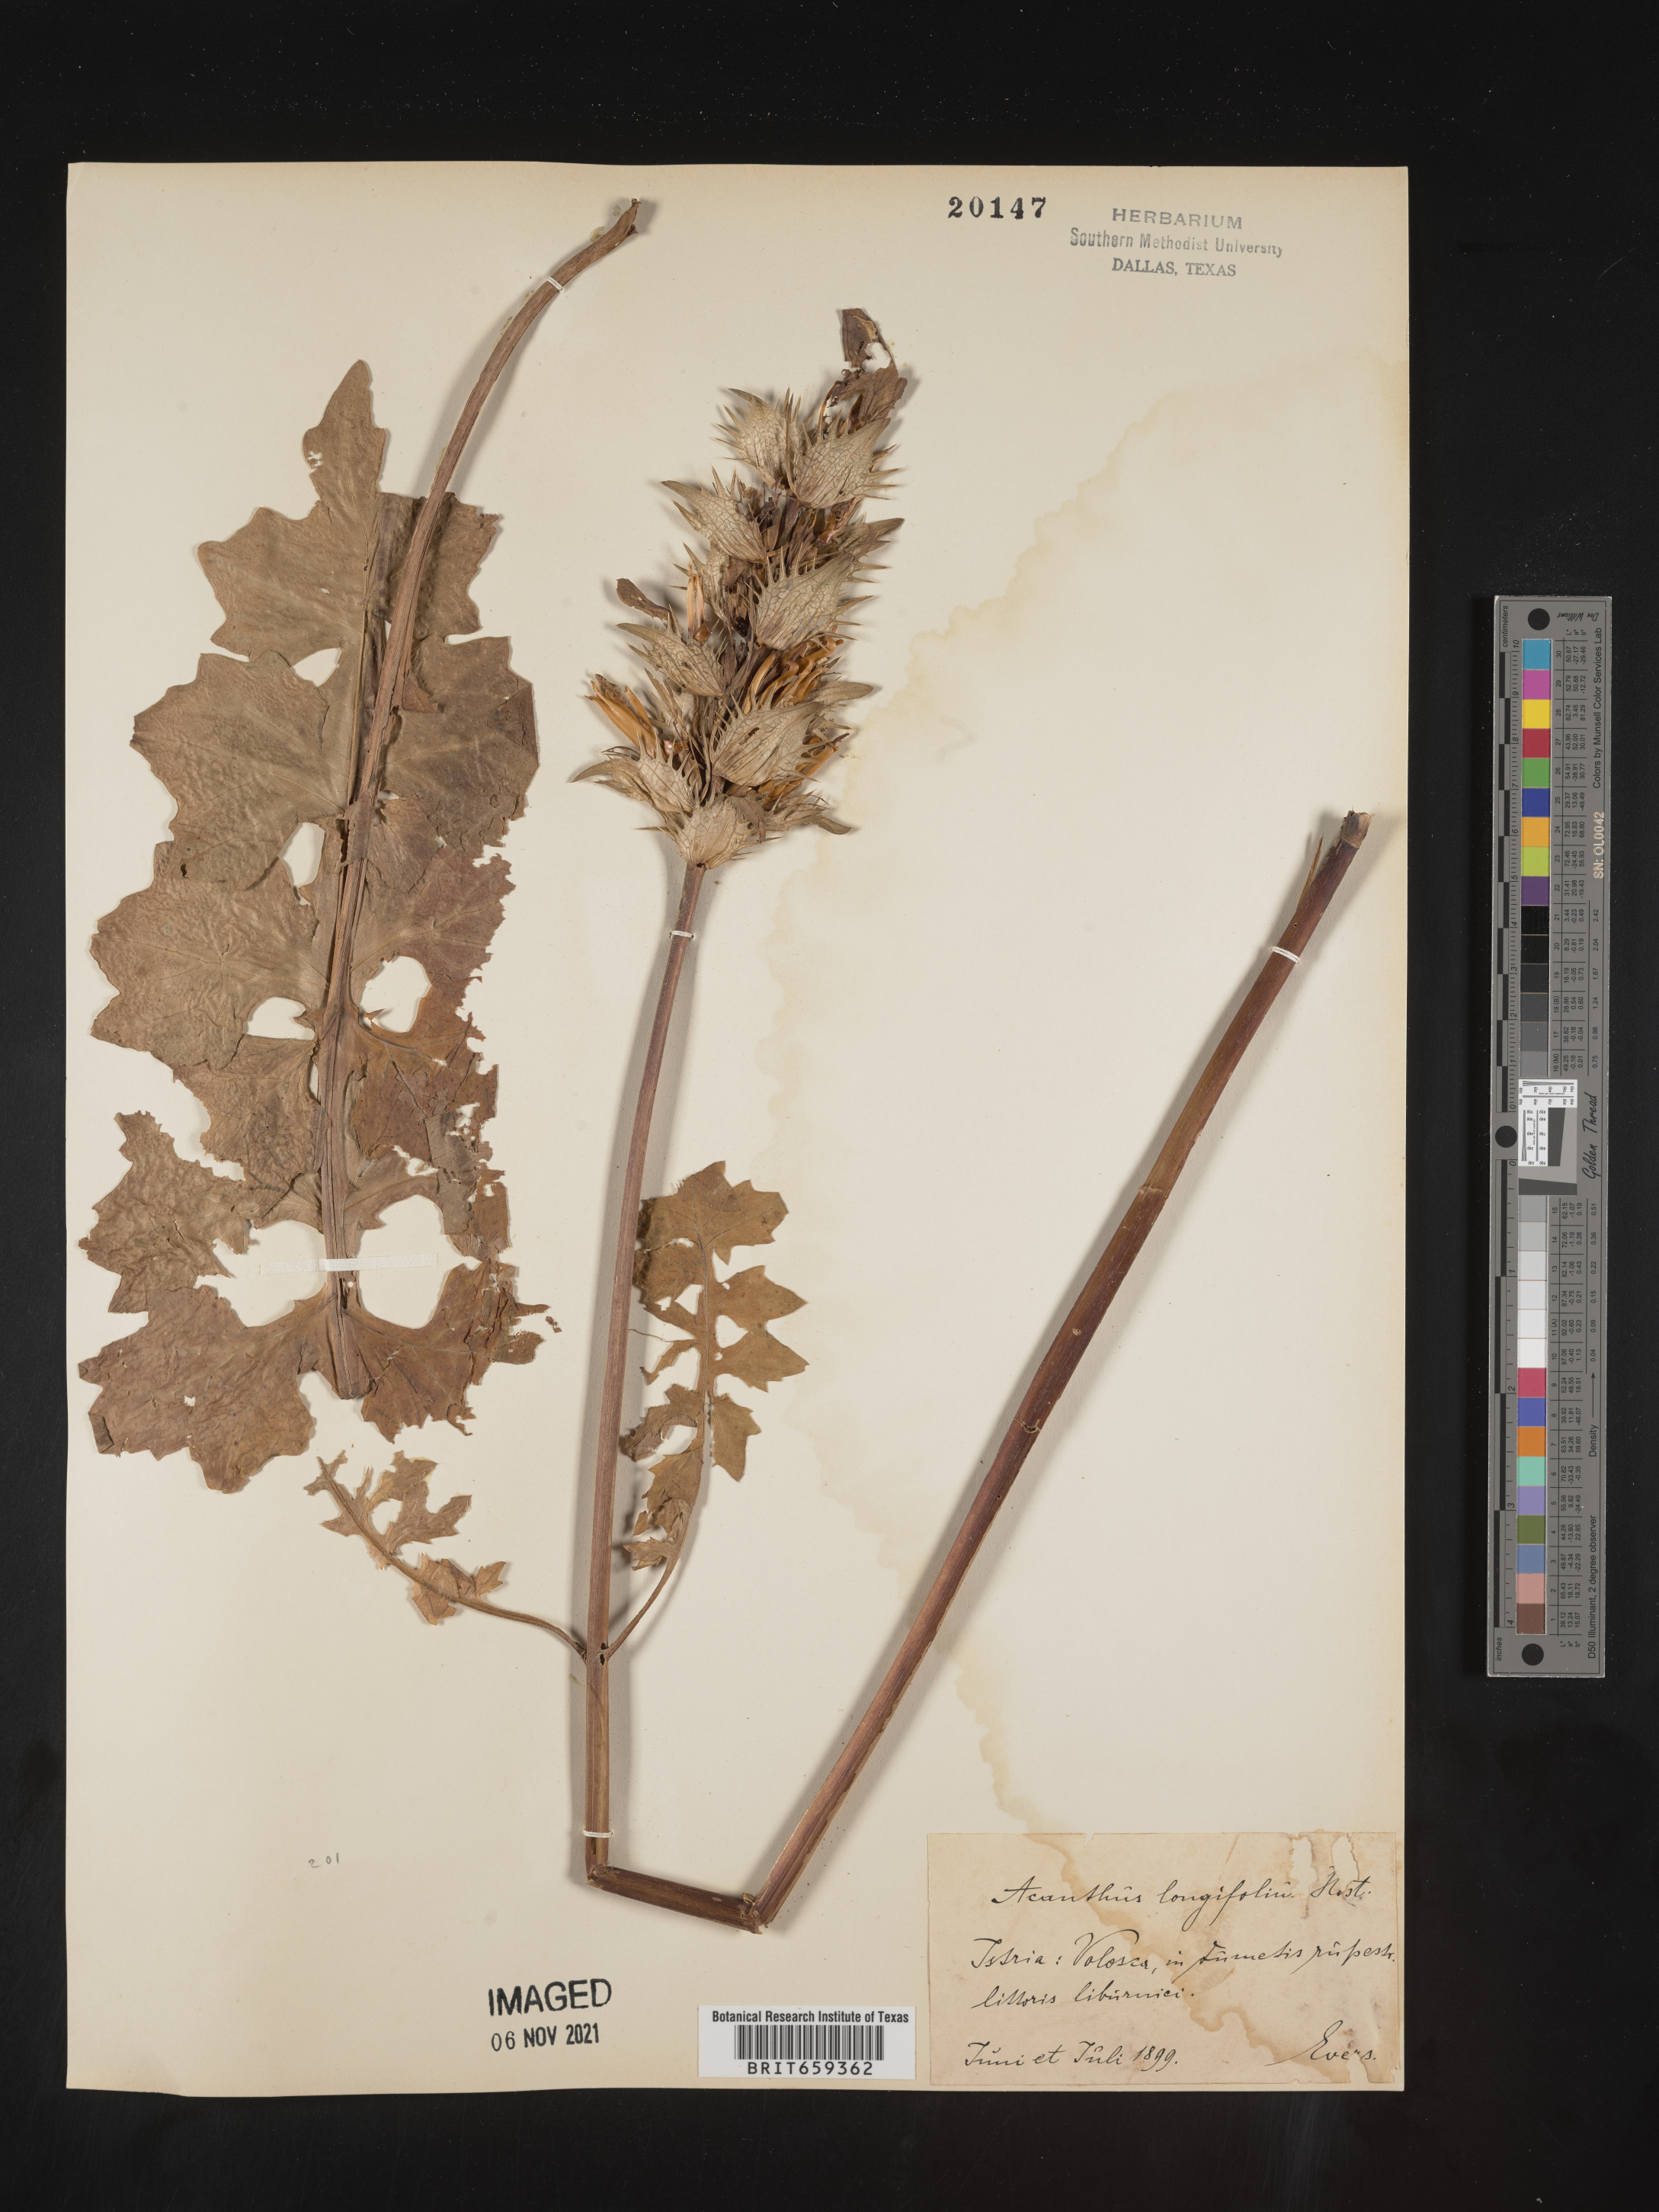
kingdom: Plantae
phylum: Tracheophyta
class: Magnoliopsida
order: Lamiales
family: Acanthaceae
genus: Acanthus
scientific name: Acanthus
